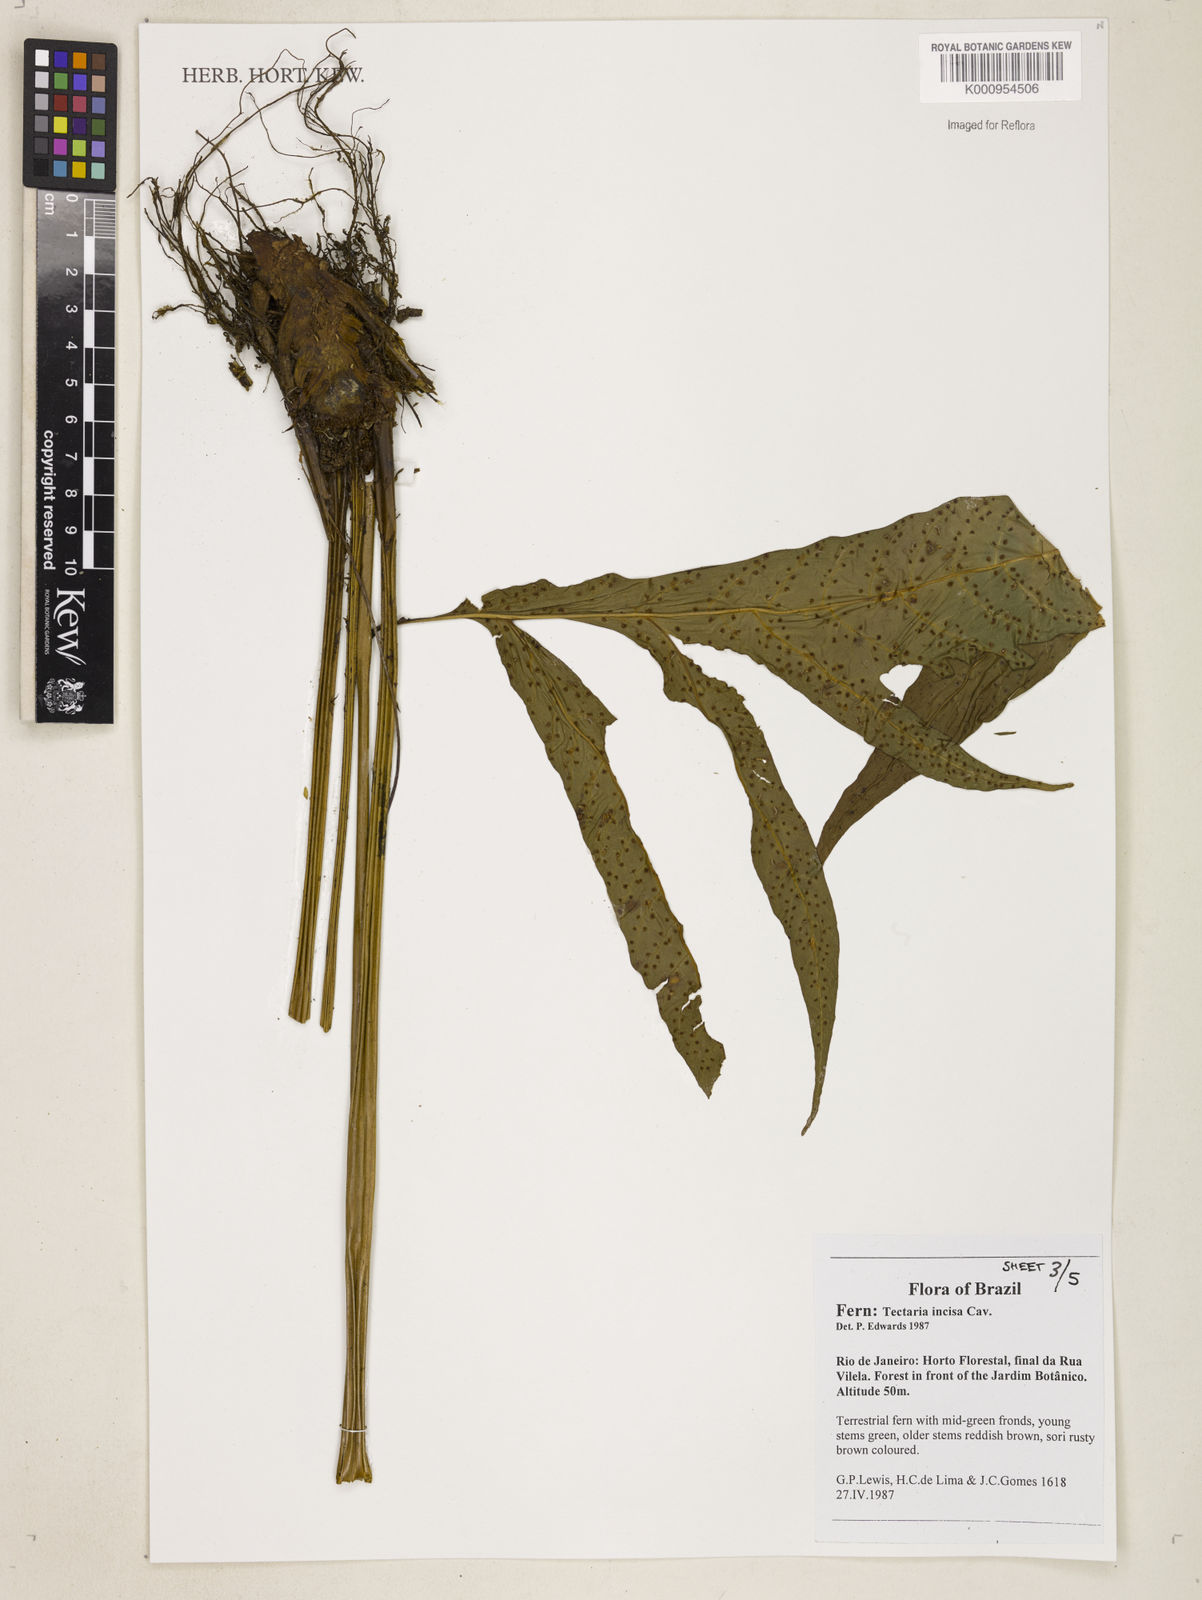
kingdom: Plantae
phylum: Tracheophyta
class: Polypodiopsida
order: Polypodiales
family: Tectariaceae
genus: Tectaria
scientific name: Tectaria incisa
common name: Incised halberd fern
